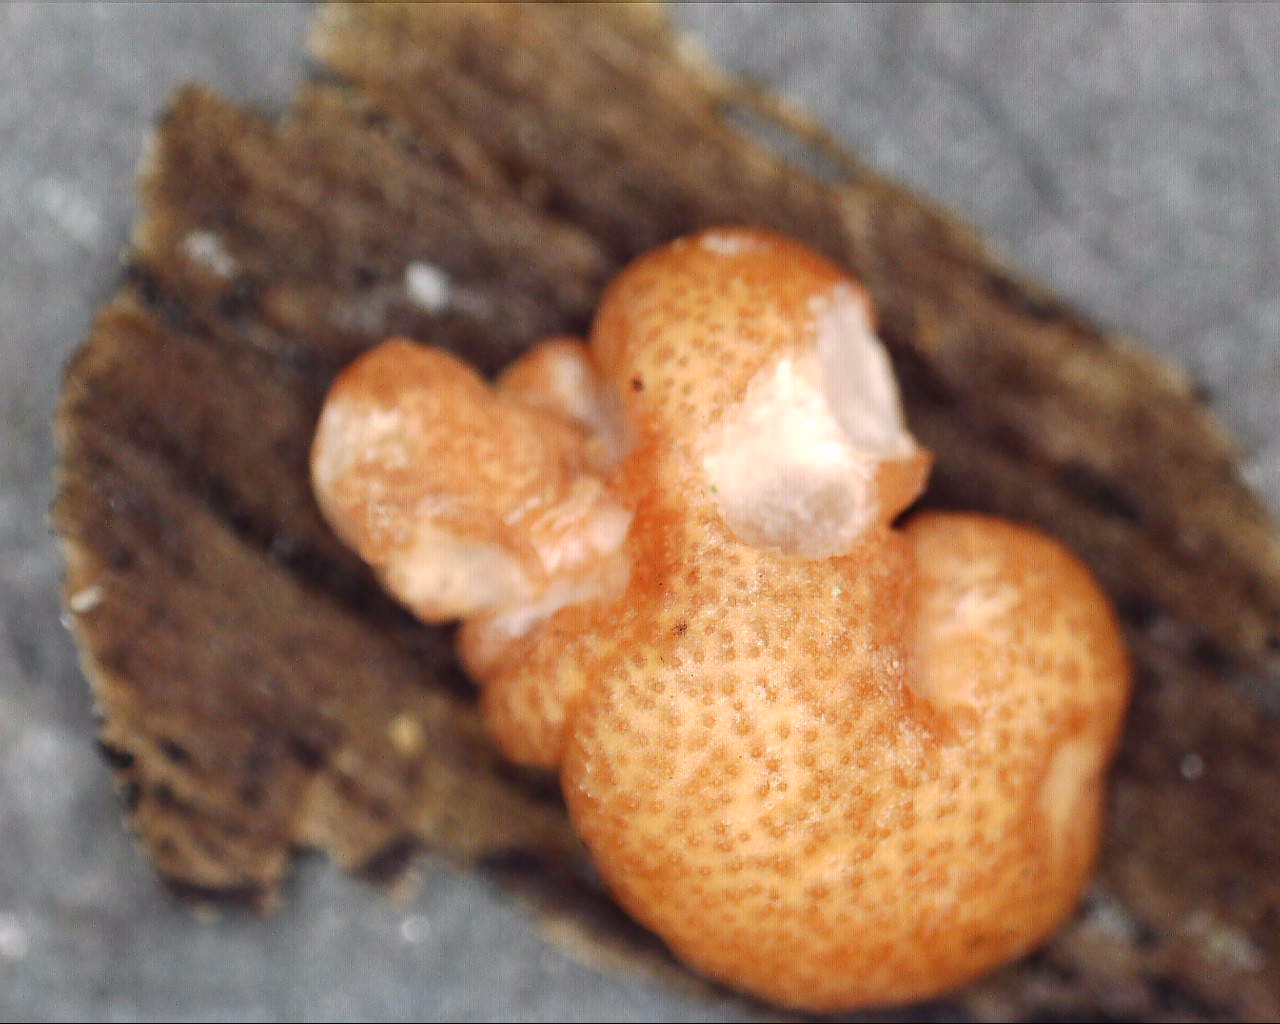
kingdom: Fungi
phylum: Ascomycota
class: Sordariomycetes
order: Hypocreales
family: Hypocreaceae
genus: Trichoderma
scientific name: Trichoderma europaeum
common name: rosabrun kødkerne
